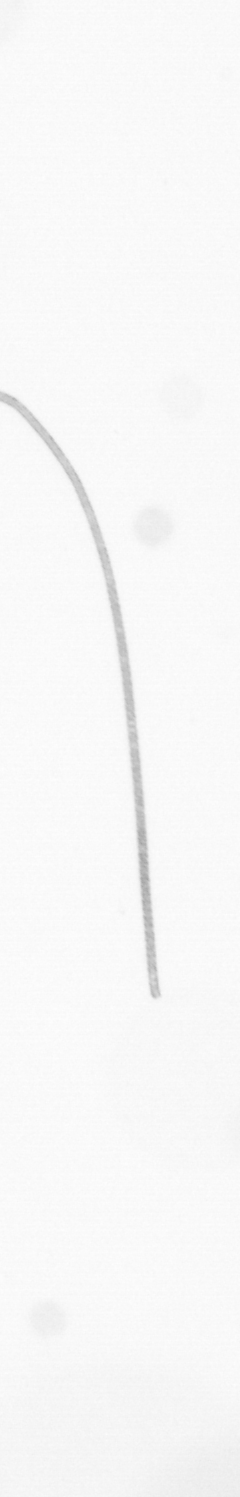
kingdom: Chromista
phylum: Ochrophyta
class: Bacillariophyceae
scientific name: Bacillariophyceae
